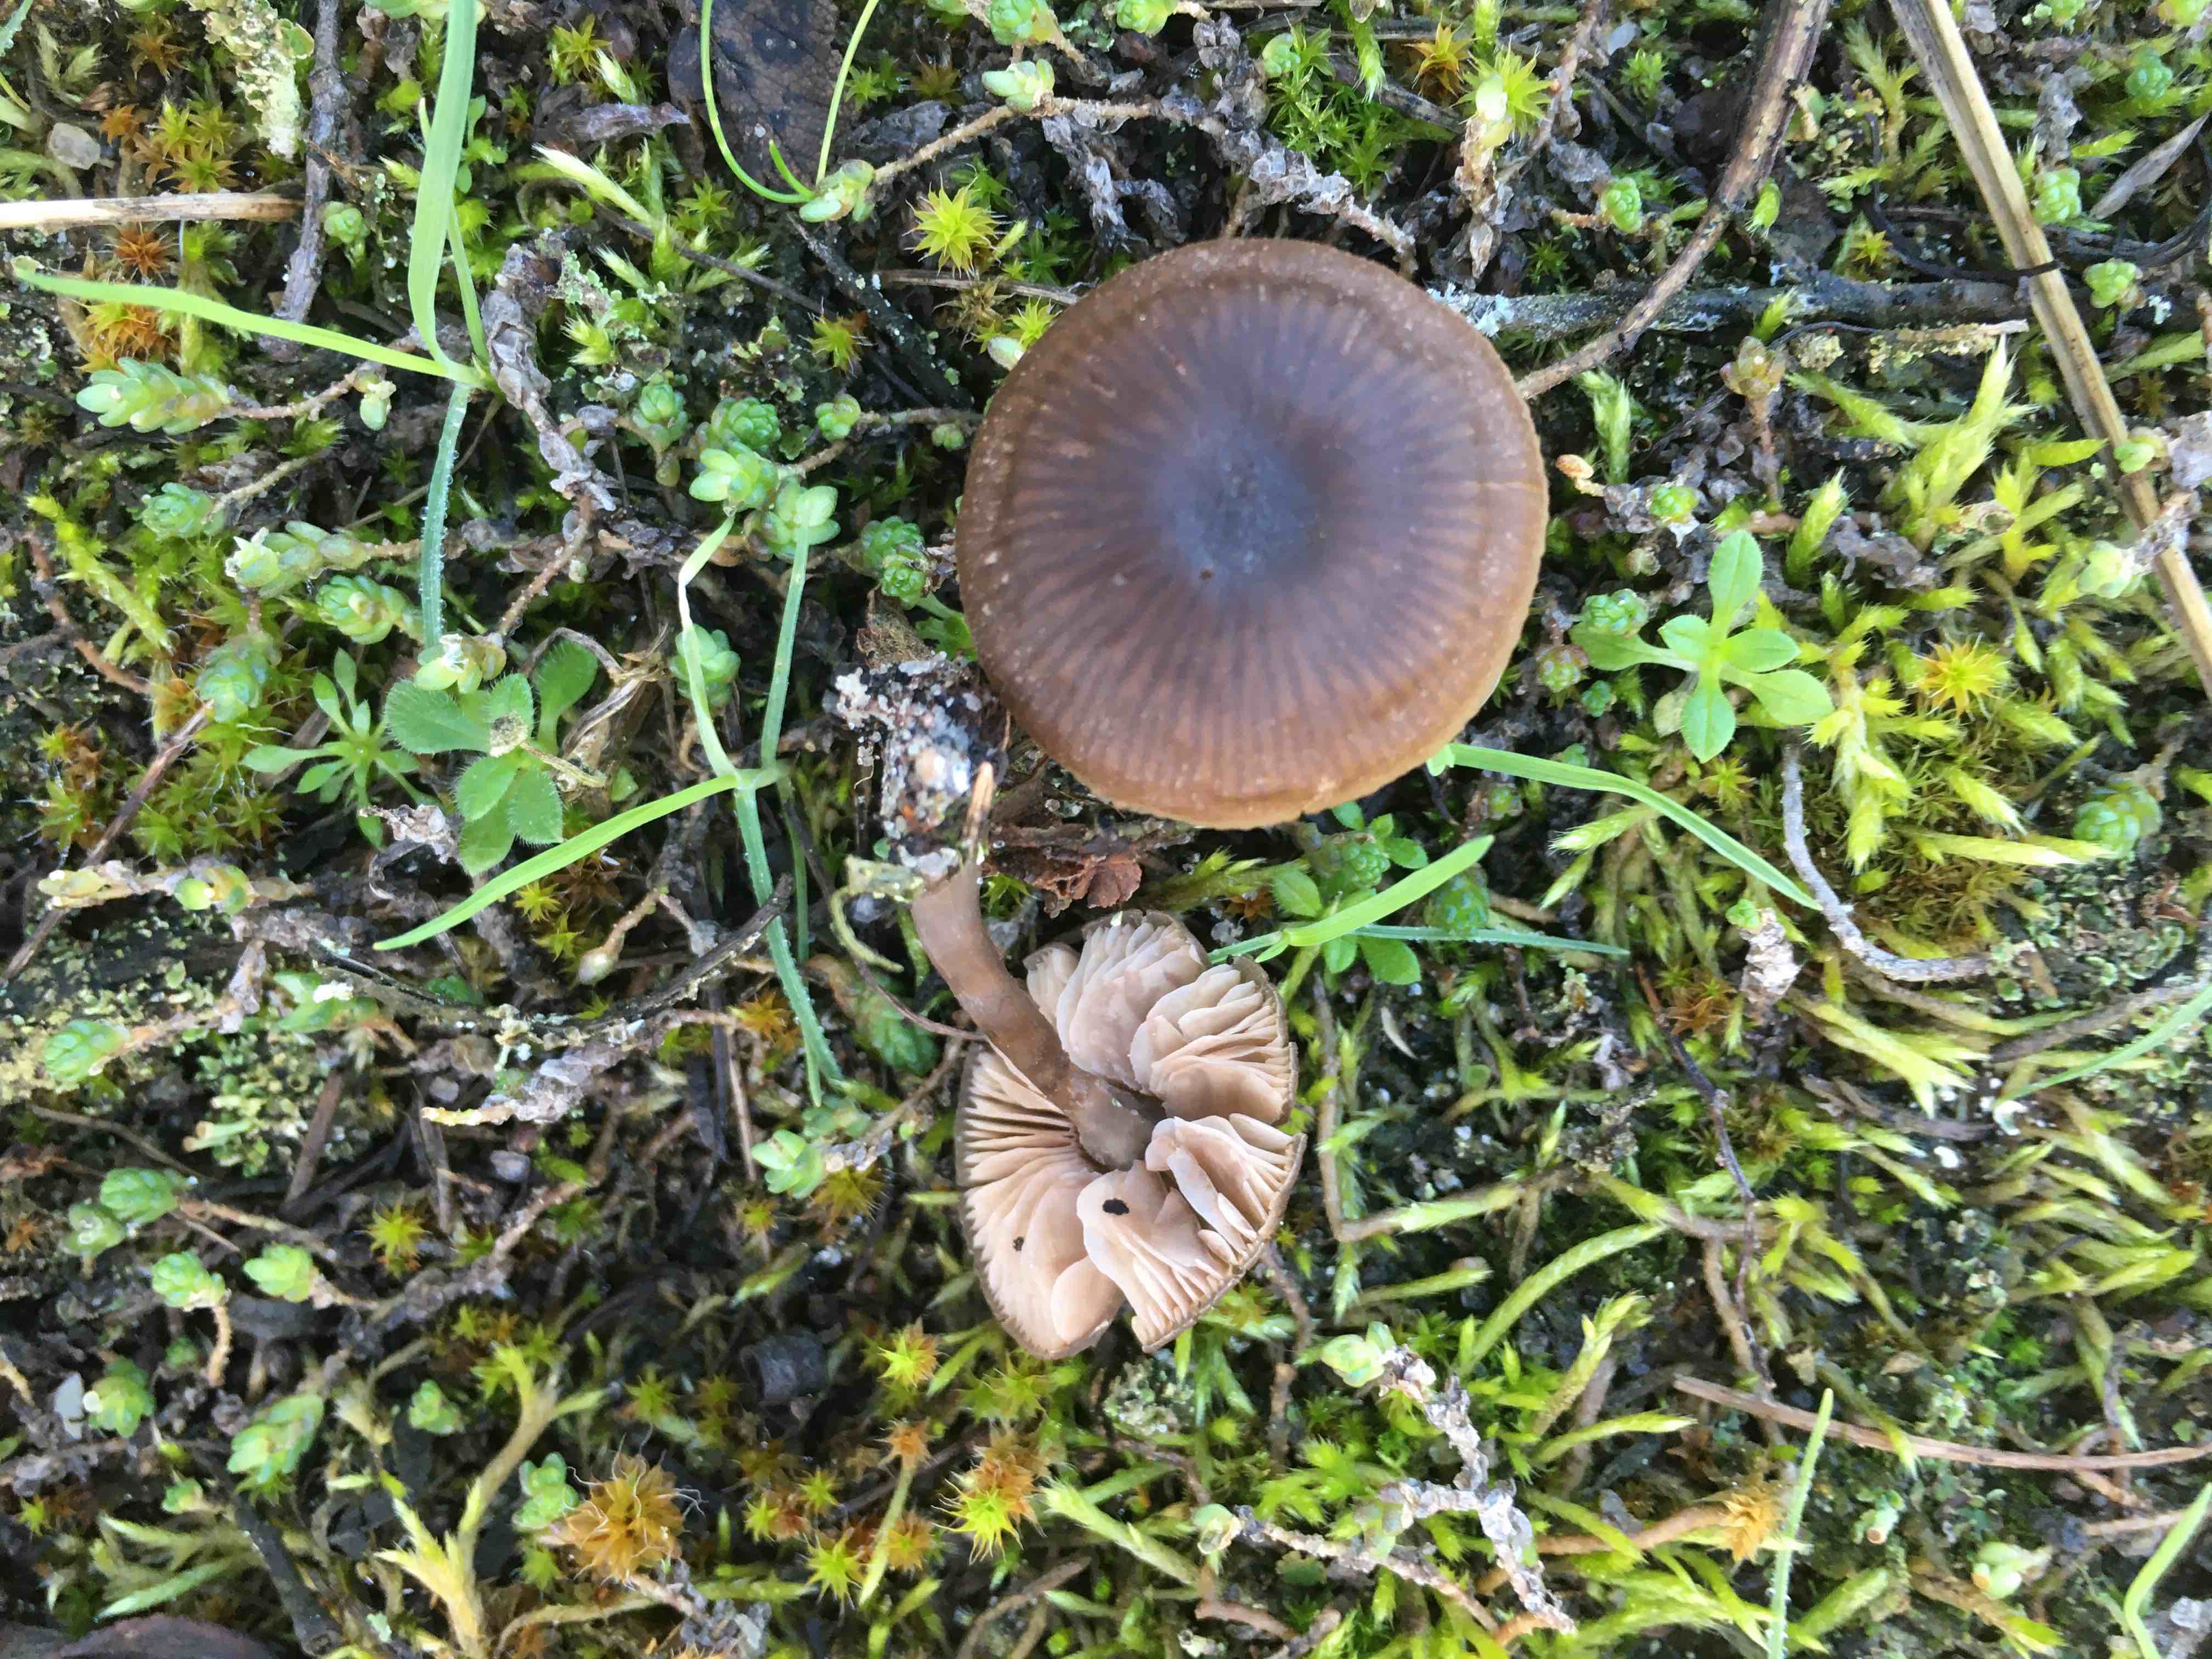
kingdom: Fungi
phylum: Basidiomycota
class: Agaricomycetes
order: Agaricales
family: Entolomataceae
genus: Entoloma
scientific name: Entoloma sericeum
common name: silkeglinsende rødblad
